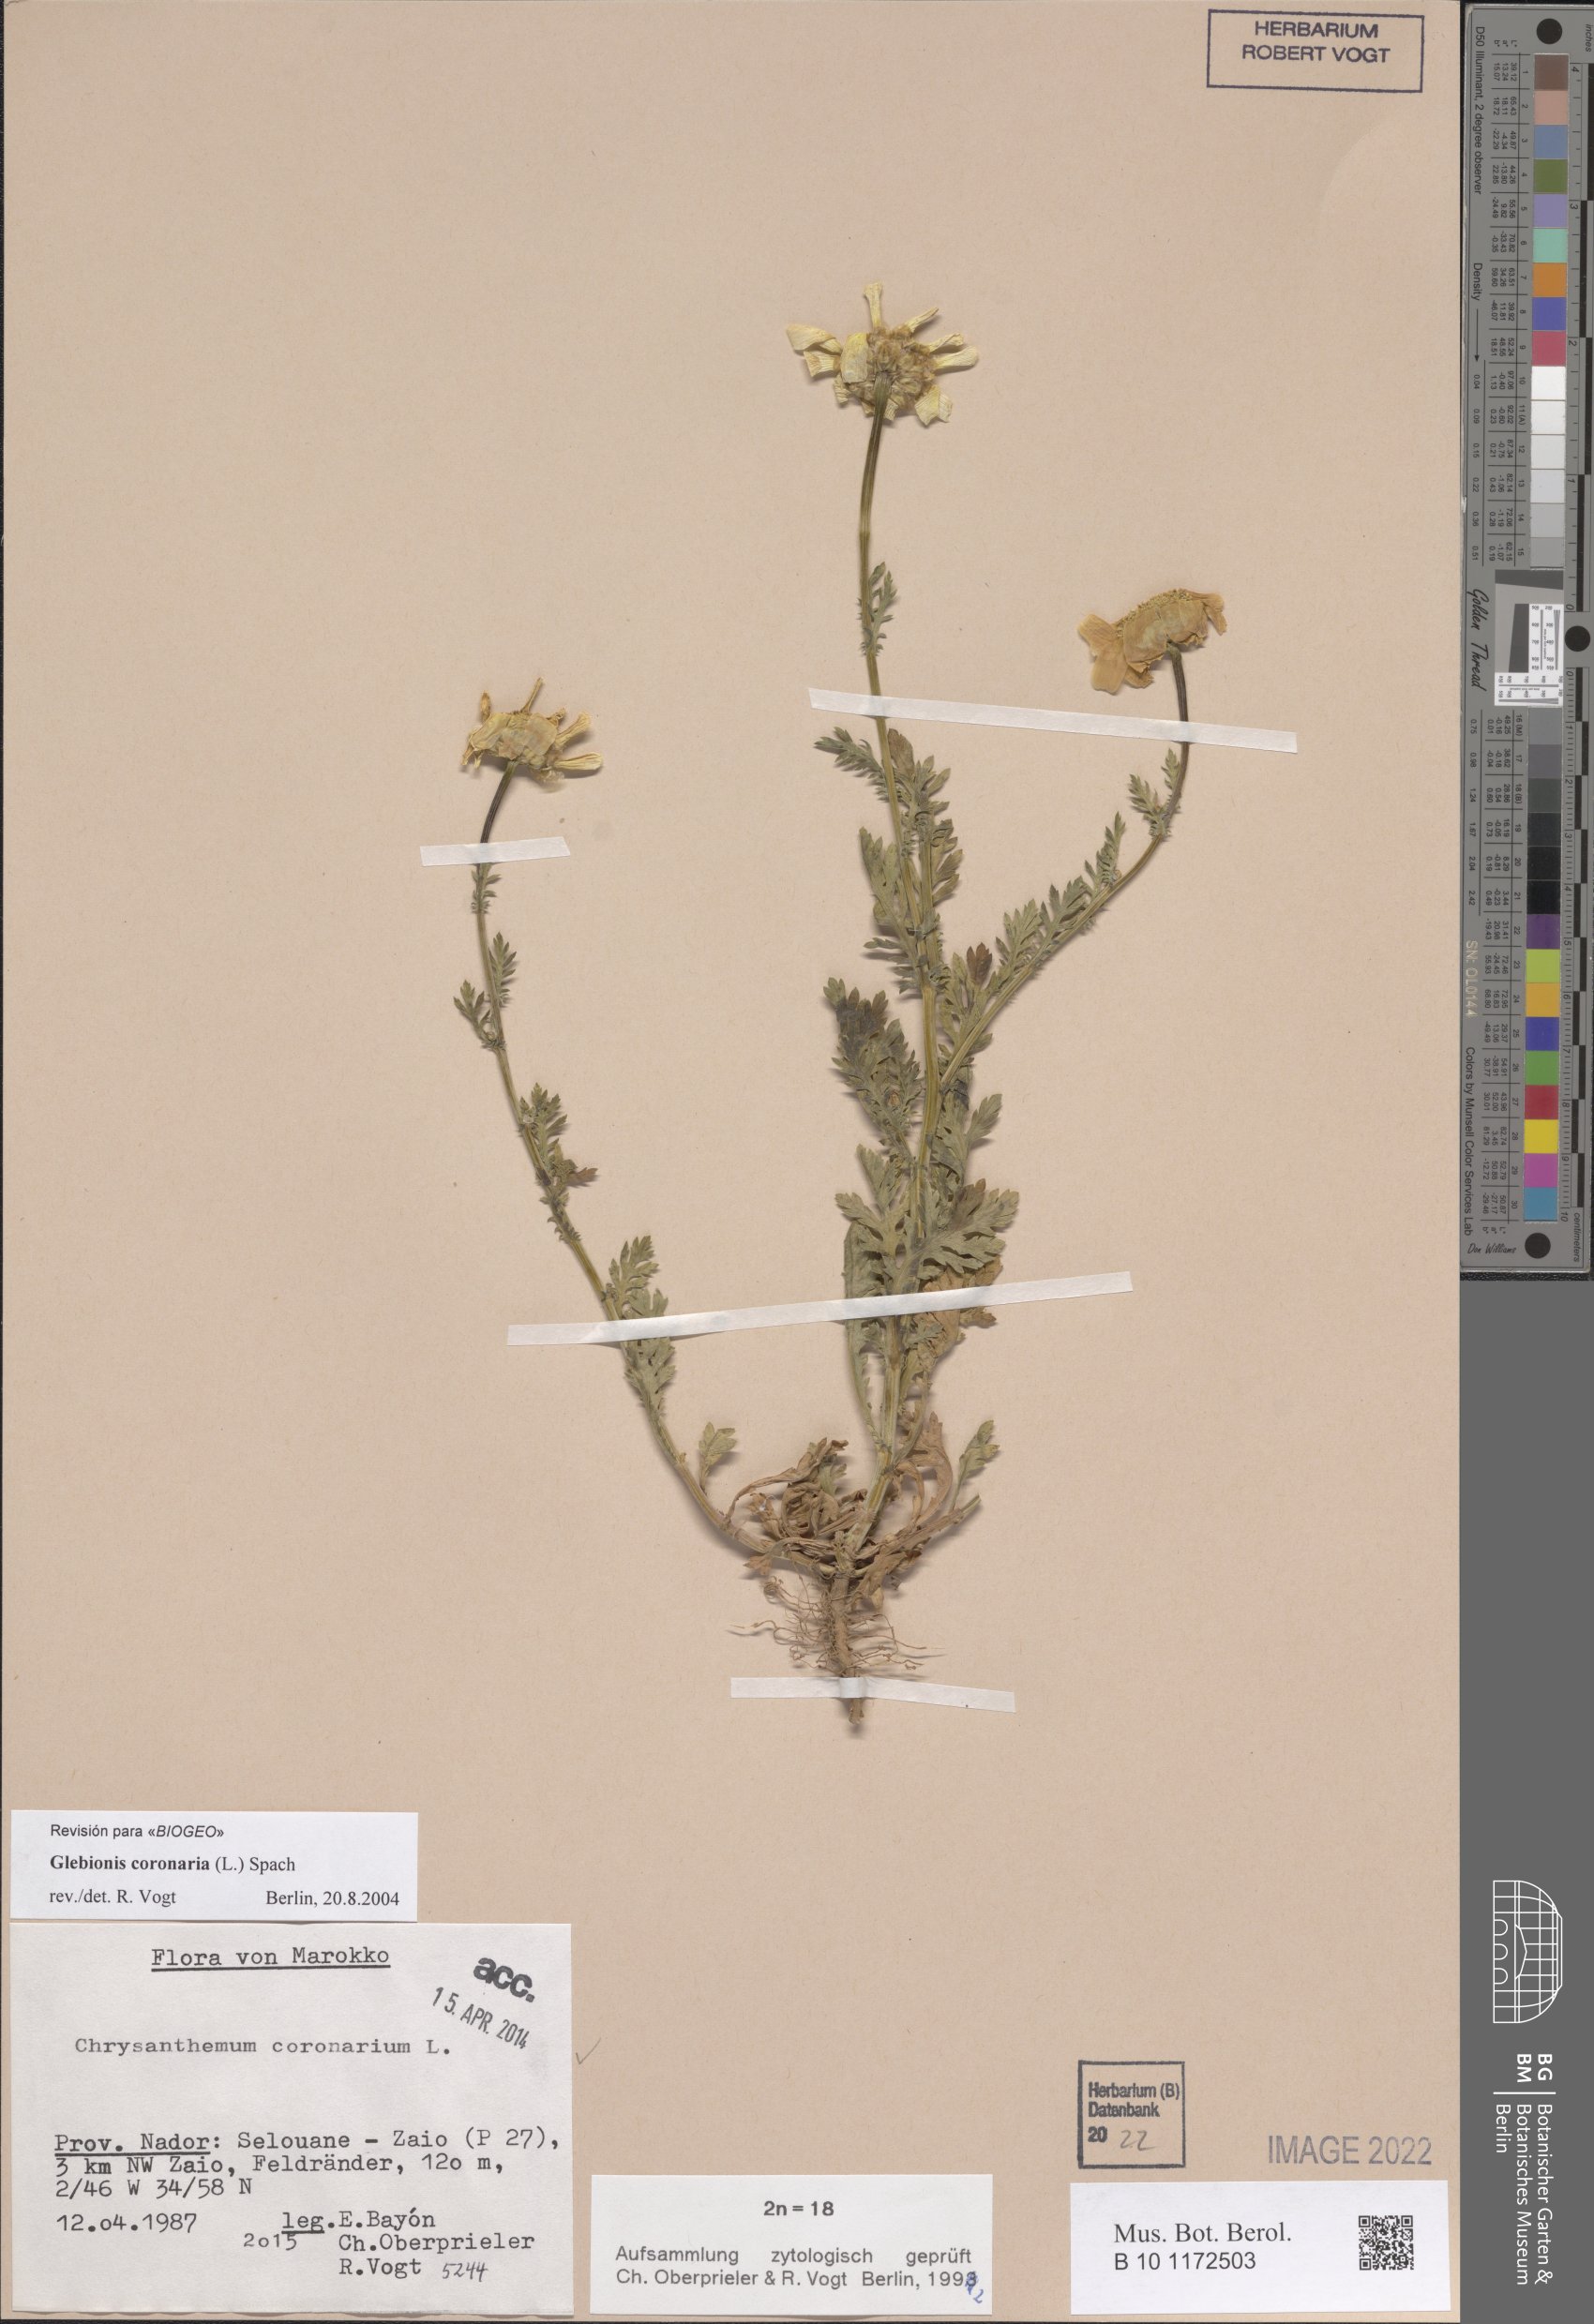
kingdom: Plantae
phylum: Tracheophyta
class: Magnoliopsida
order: Asterales
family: Asteraceae
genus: Glebionis
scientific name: Glebionis coronaria
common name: Crowndaisy
